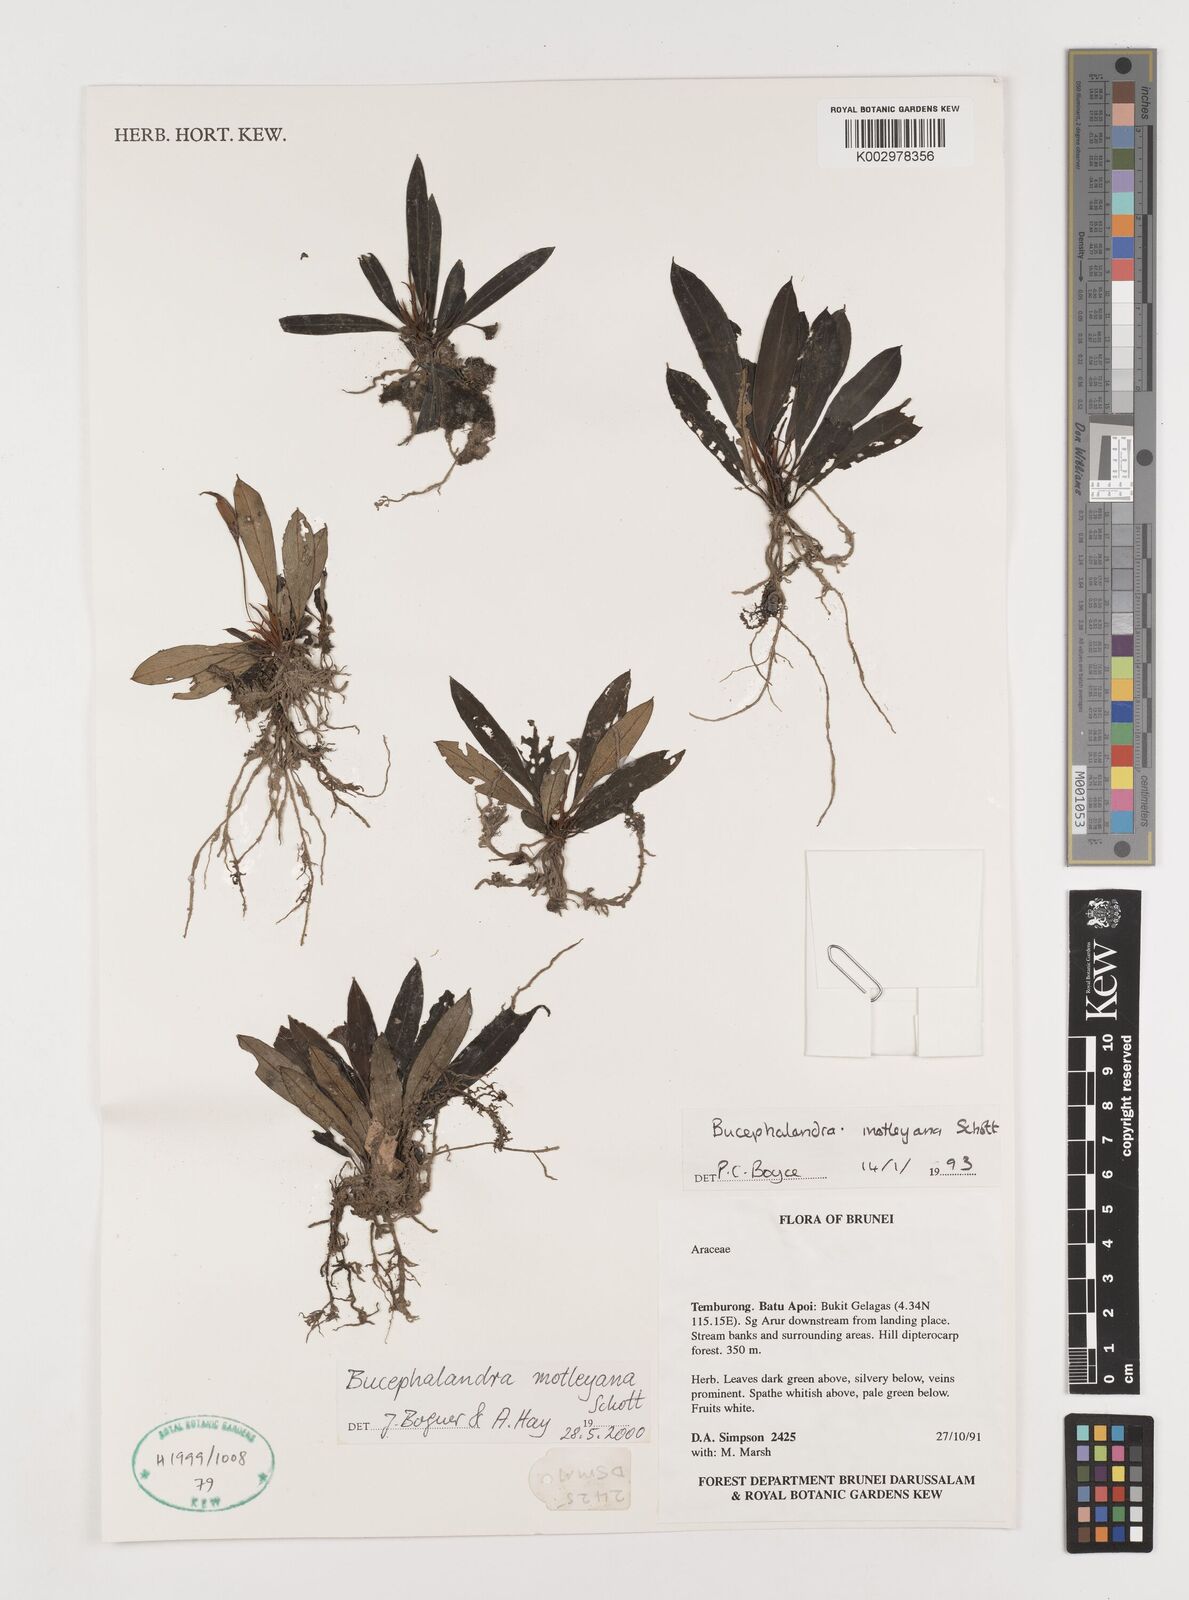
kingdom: Plantae
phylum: Tracheophyta
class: Liliopsida
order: Alismatales
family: Araceae
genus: Bucephalandra
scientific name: Bucephalandra motleyana
